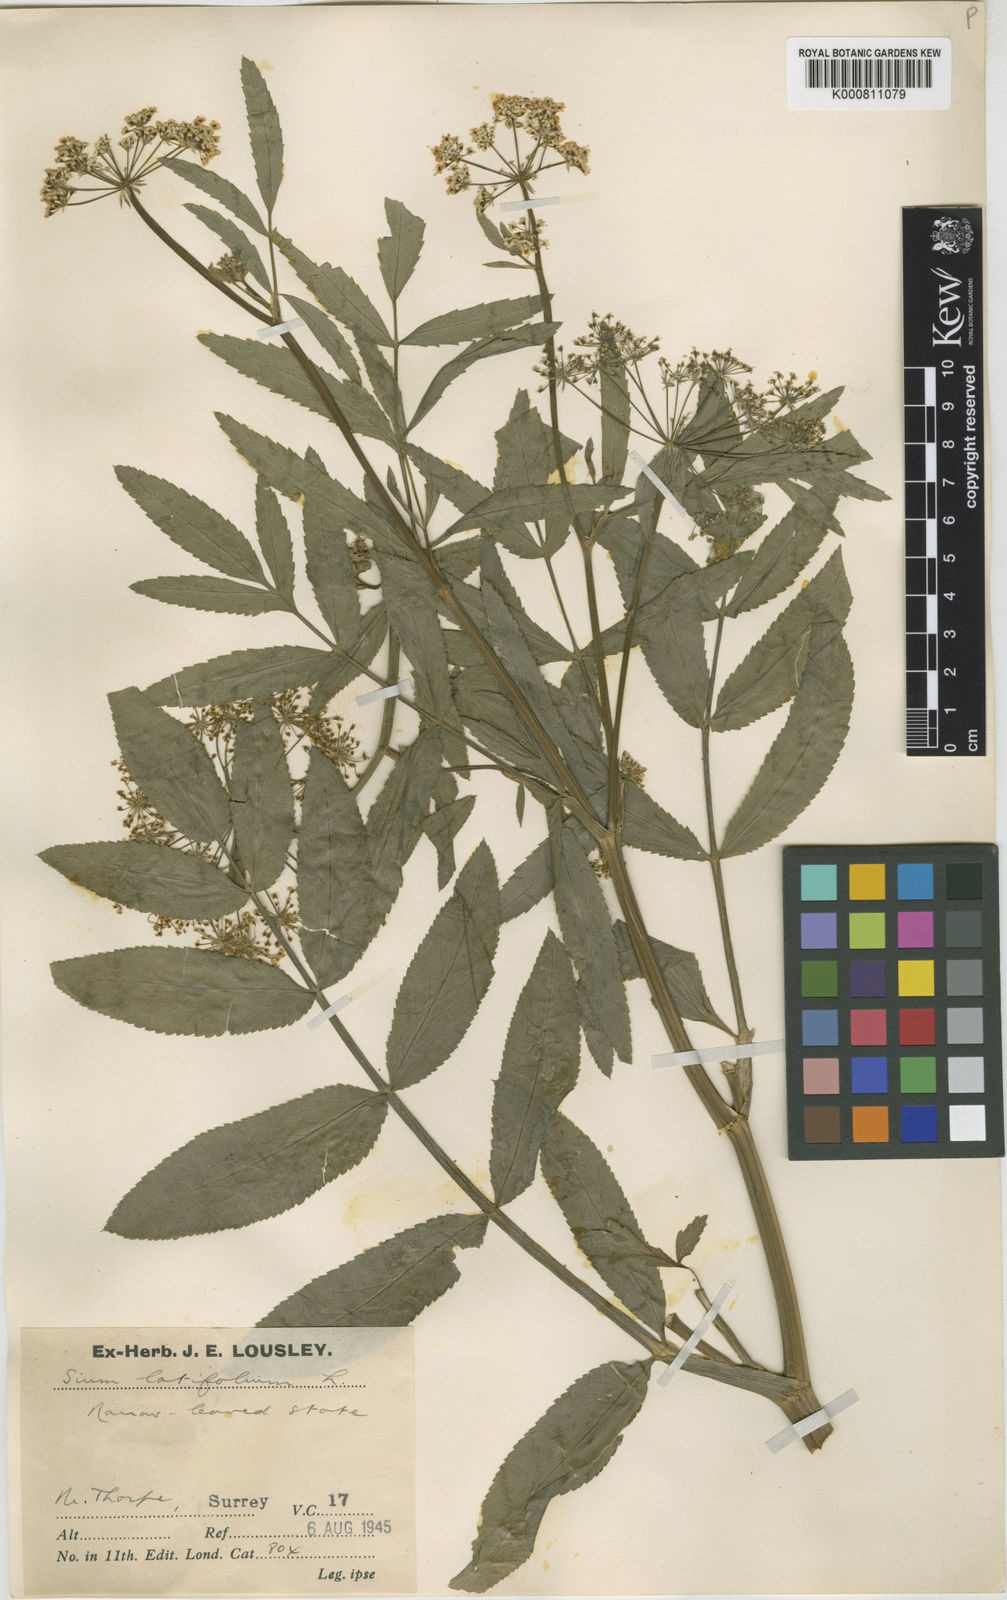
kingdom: Plantae
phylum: Tracheophyta
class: Magnoliopsida
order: Apiales
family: Apiaceae
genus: Sium
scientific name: Sium latifolium
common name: Greater water-parsnip
